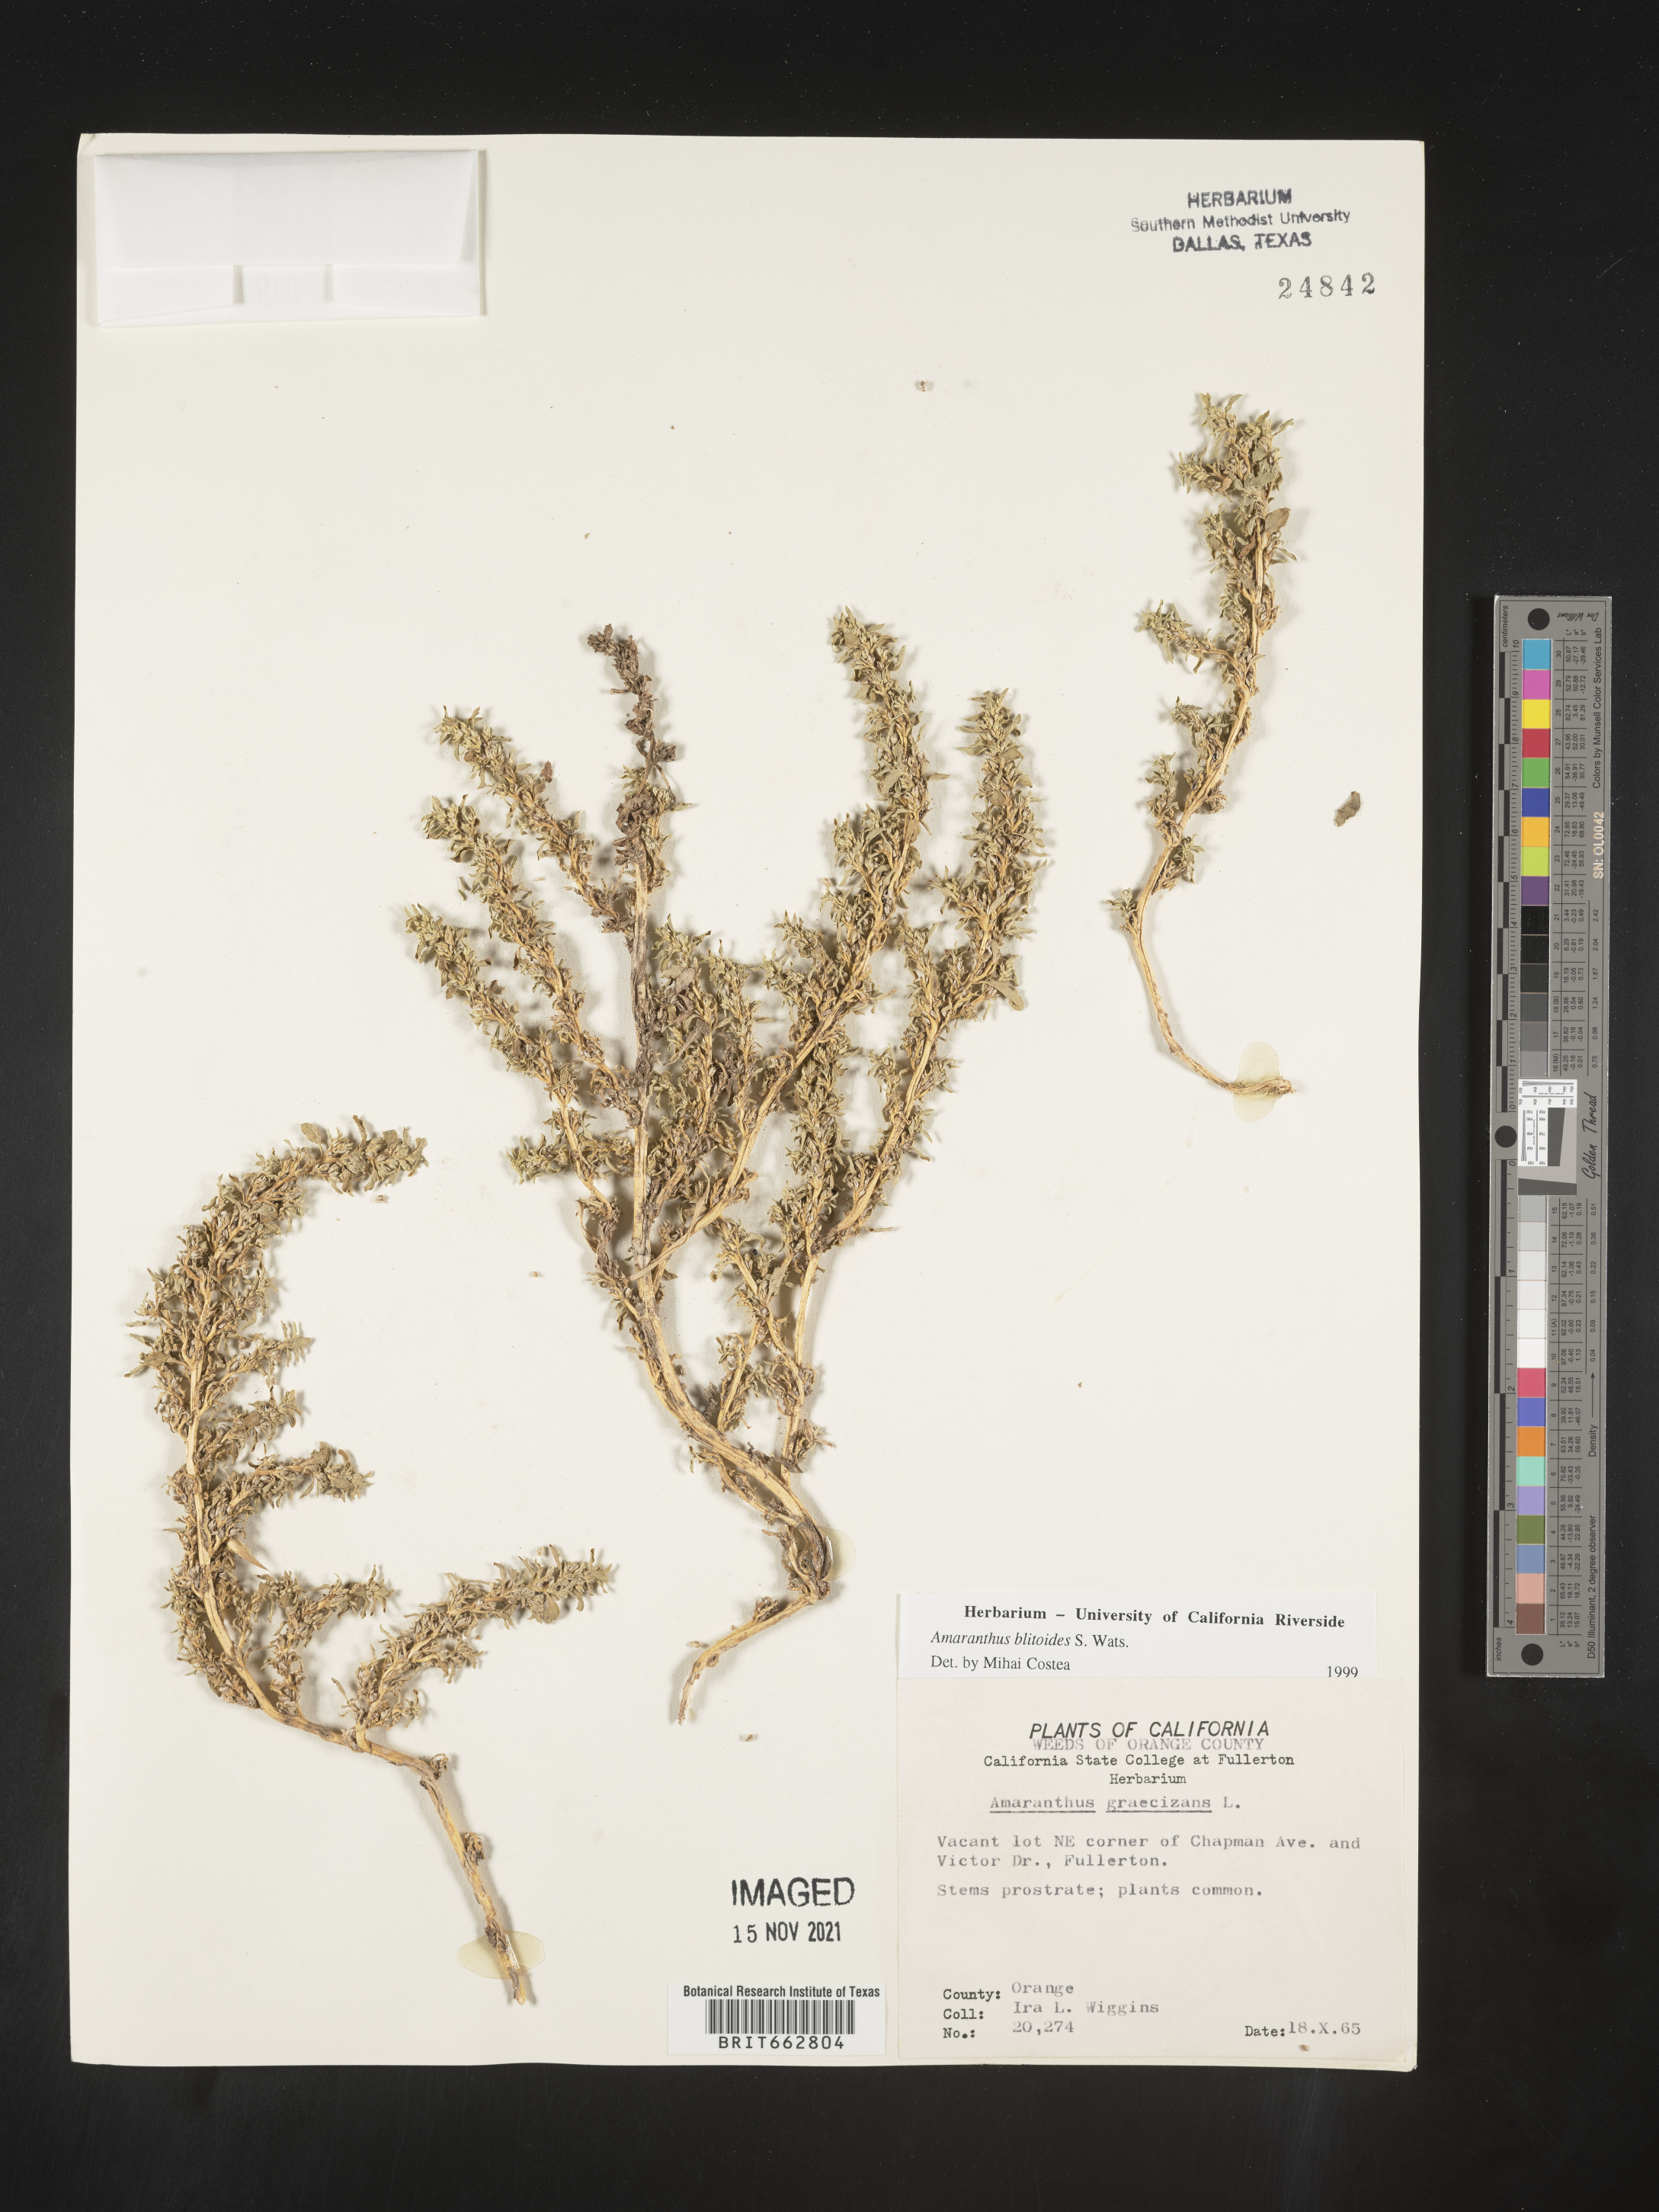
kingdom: Plantae
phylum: Tracheophyta
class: Magnoliopsida
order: Caryophyllales
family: Amaranthaceae
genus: Amaranthus
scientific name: Amaranthus blitoides
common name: Prostrate pigweed
